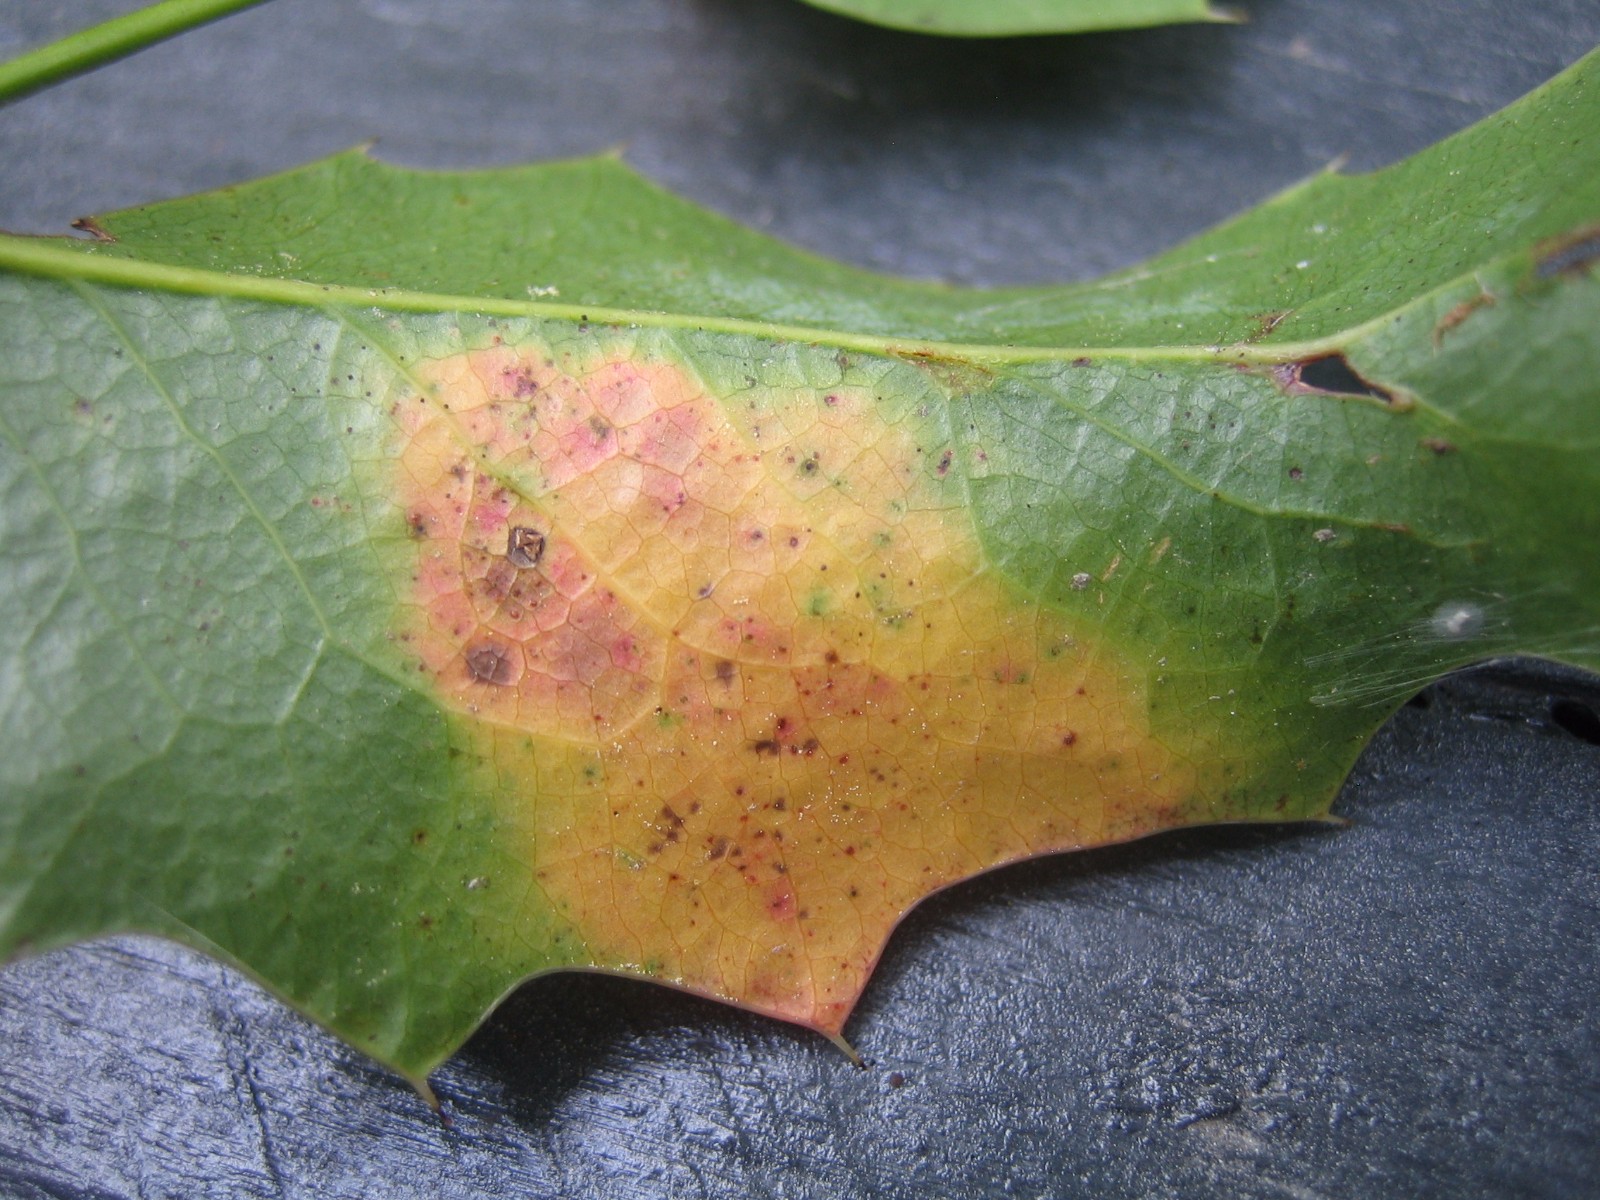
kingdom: Fungi
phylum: Basidiomycota
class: Pucciniomycetes
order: Pucciniales
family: Pucciniaceae
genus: Cumminsiella
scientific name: Cumminsiella mirabilissima
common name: mahonierust
